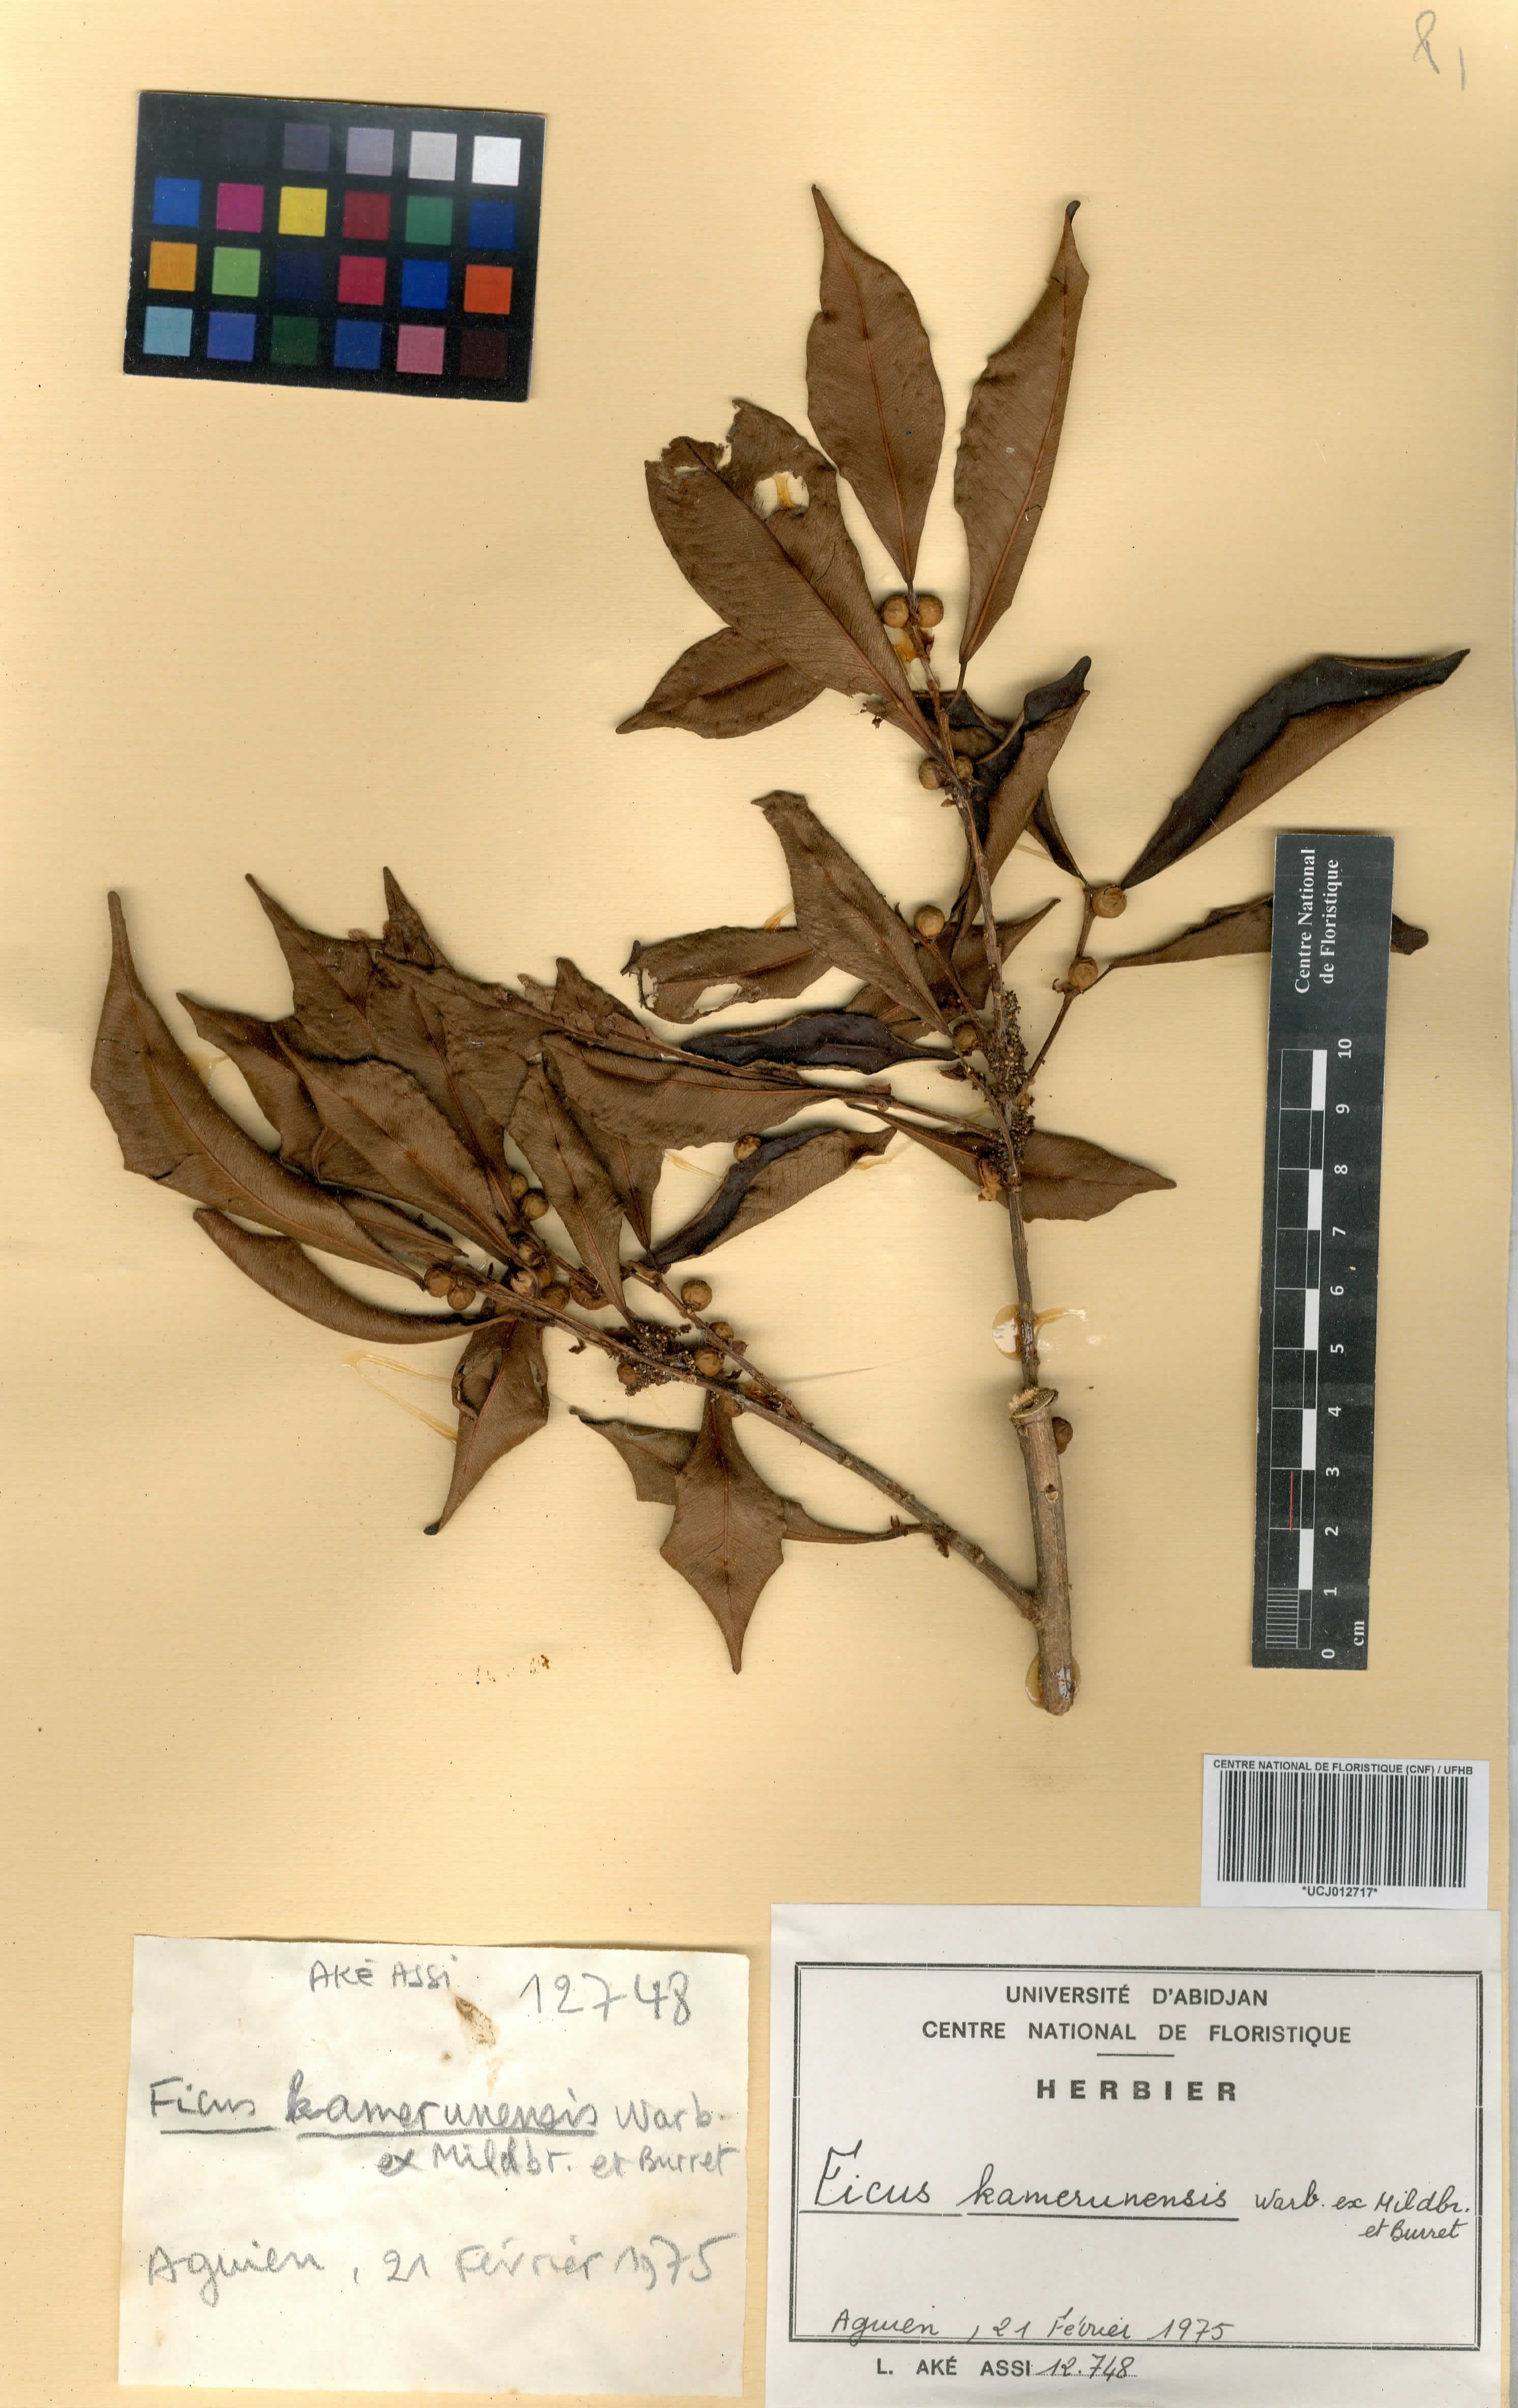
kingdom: Plantae
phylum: Tracheophyta
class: Magnoliopsida
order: Rosales
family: Moraceae
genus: Ficus
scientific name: Ficus kamerunensis
